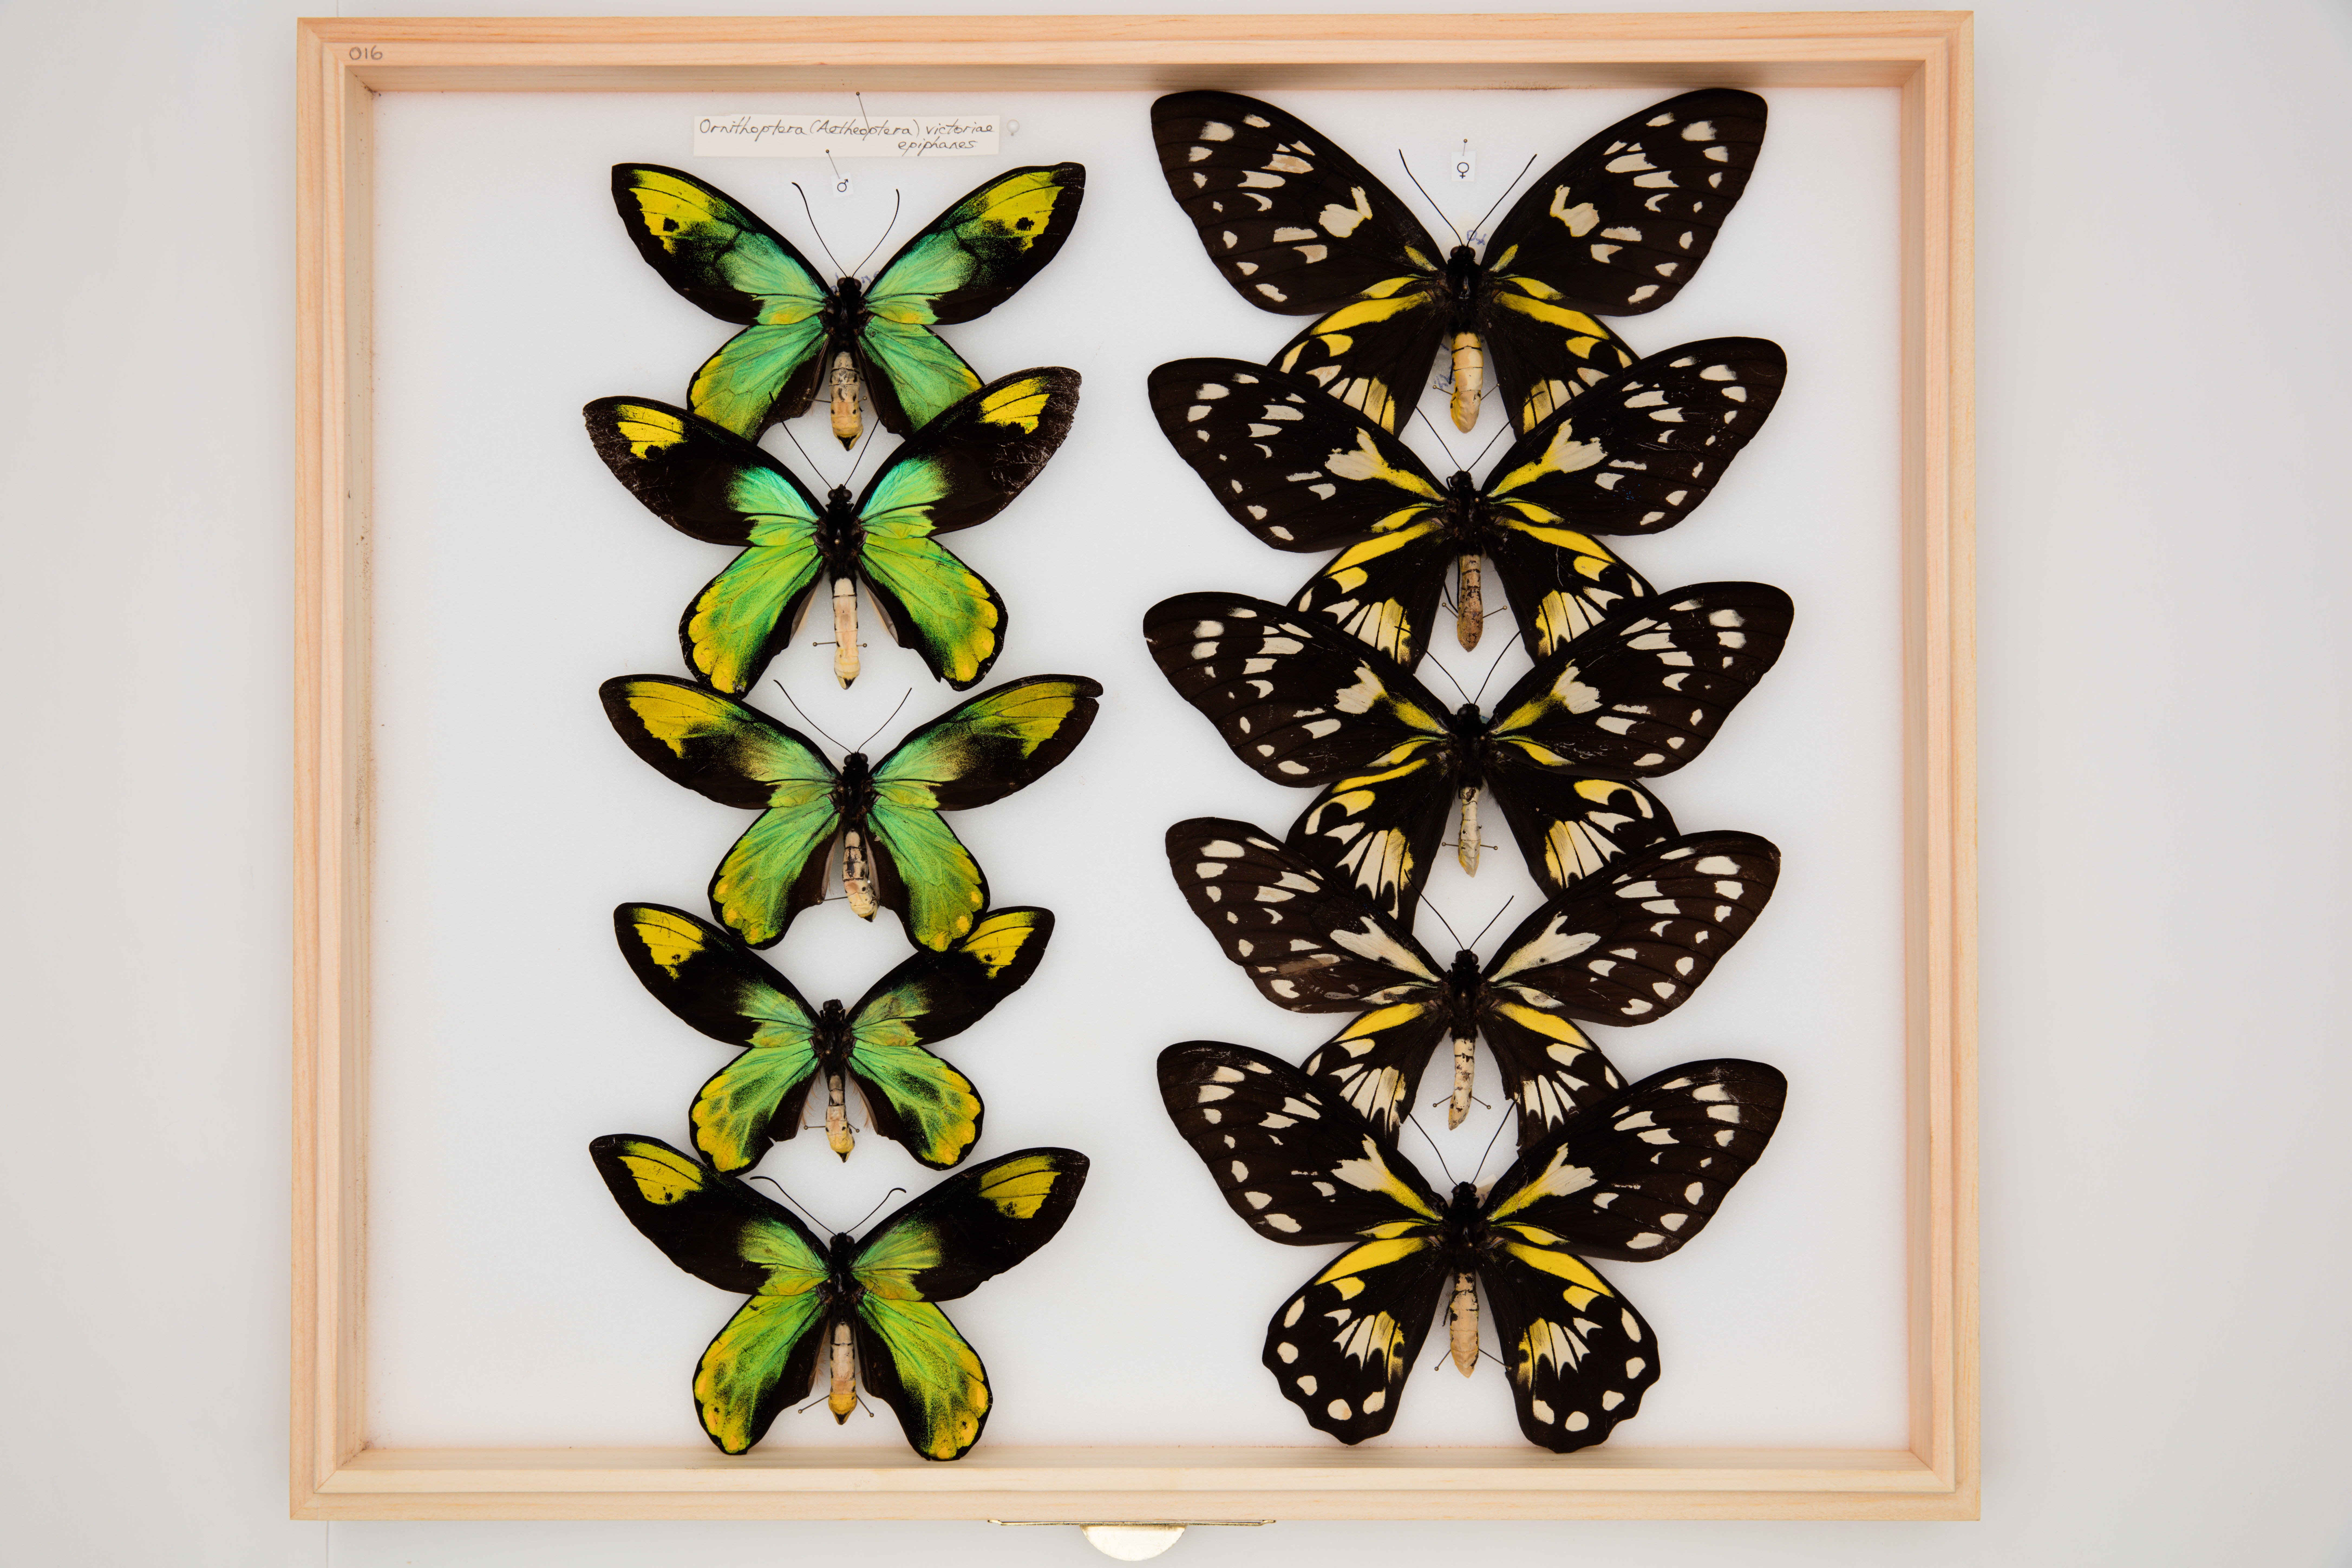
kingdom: Animalia
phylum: Arthropoda
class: Insecta
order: Lepidoptera
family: Papilionidae
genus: Ornithoptera
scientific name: Ornithoptera victoriae
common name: Queen victoria's birdwing
